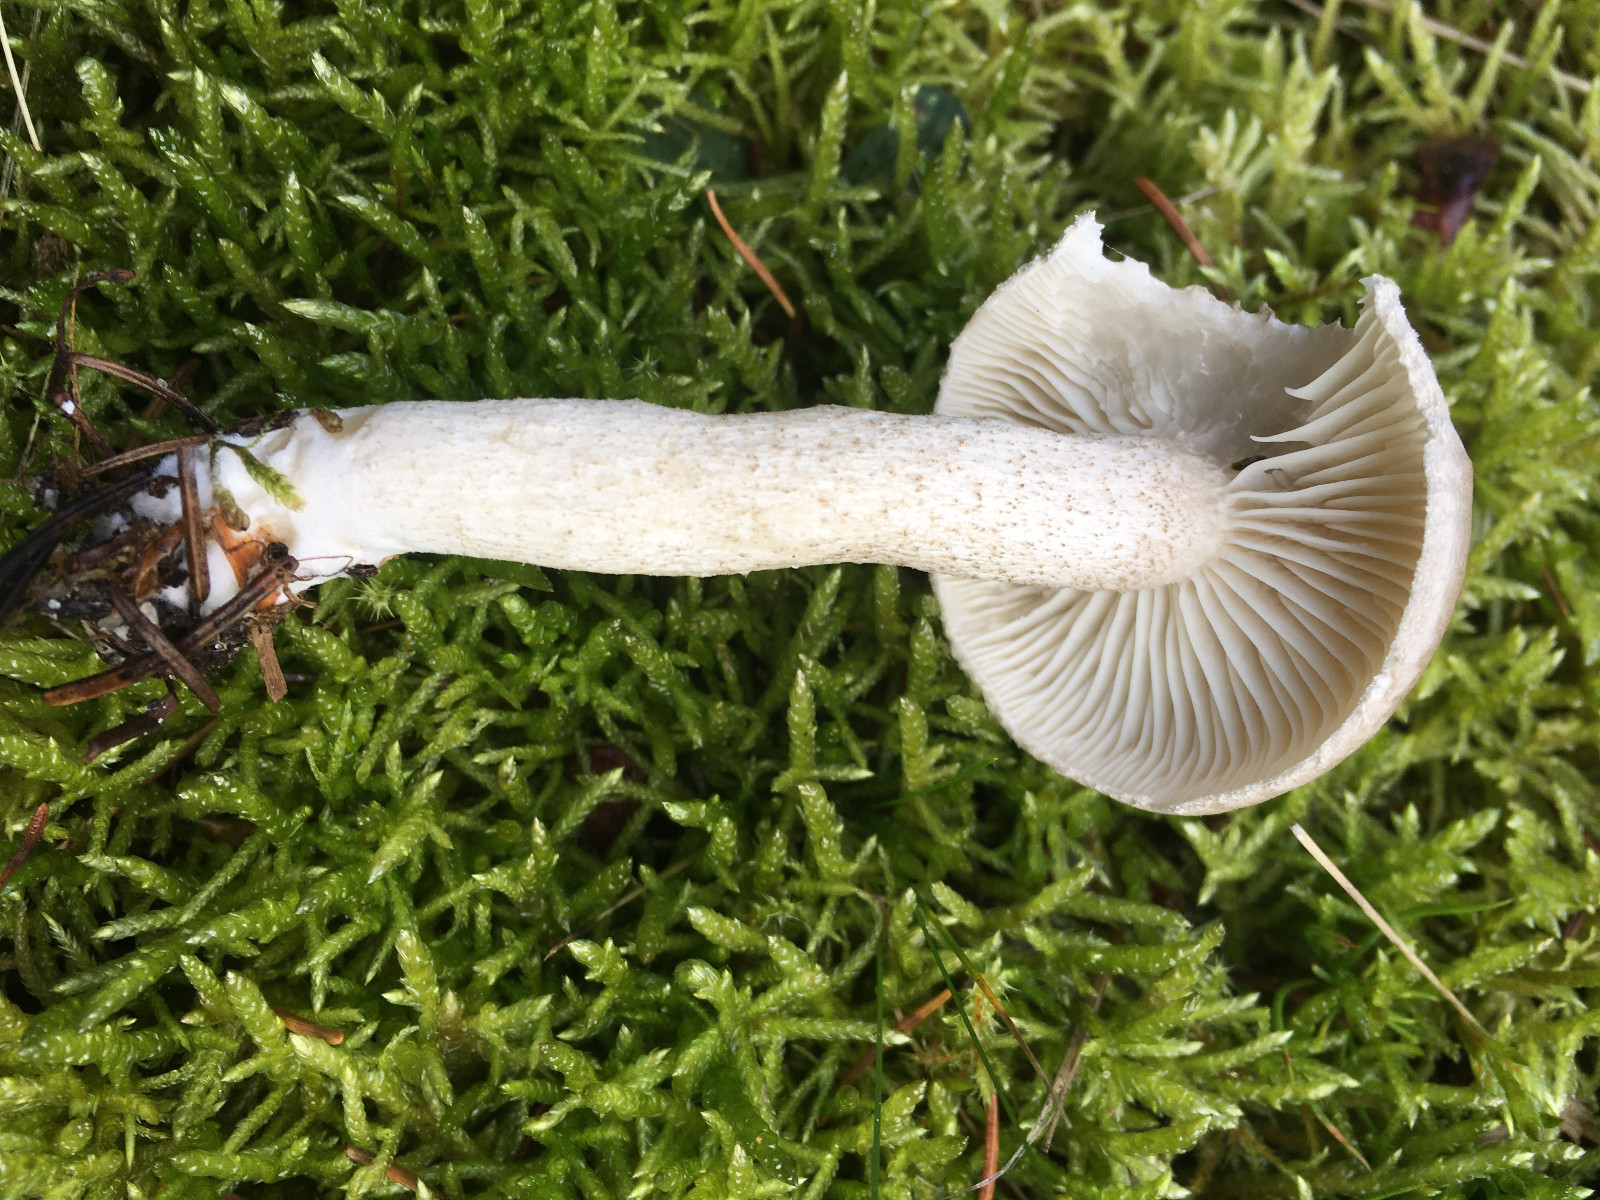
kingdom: Fungi
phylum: Basidiomycota
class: Agaricomycetes
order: Agaricales
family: Hygrophoraceae
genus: Hygrophorus
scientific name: Hygrophorus pustulatus
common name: mørkprikket sneglehat
